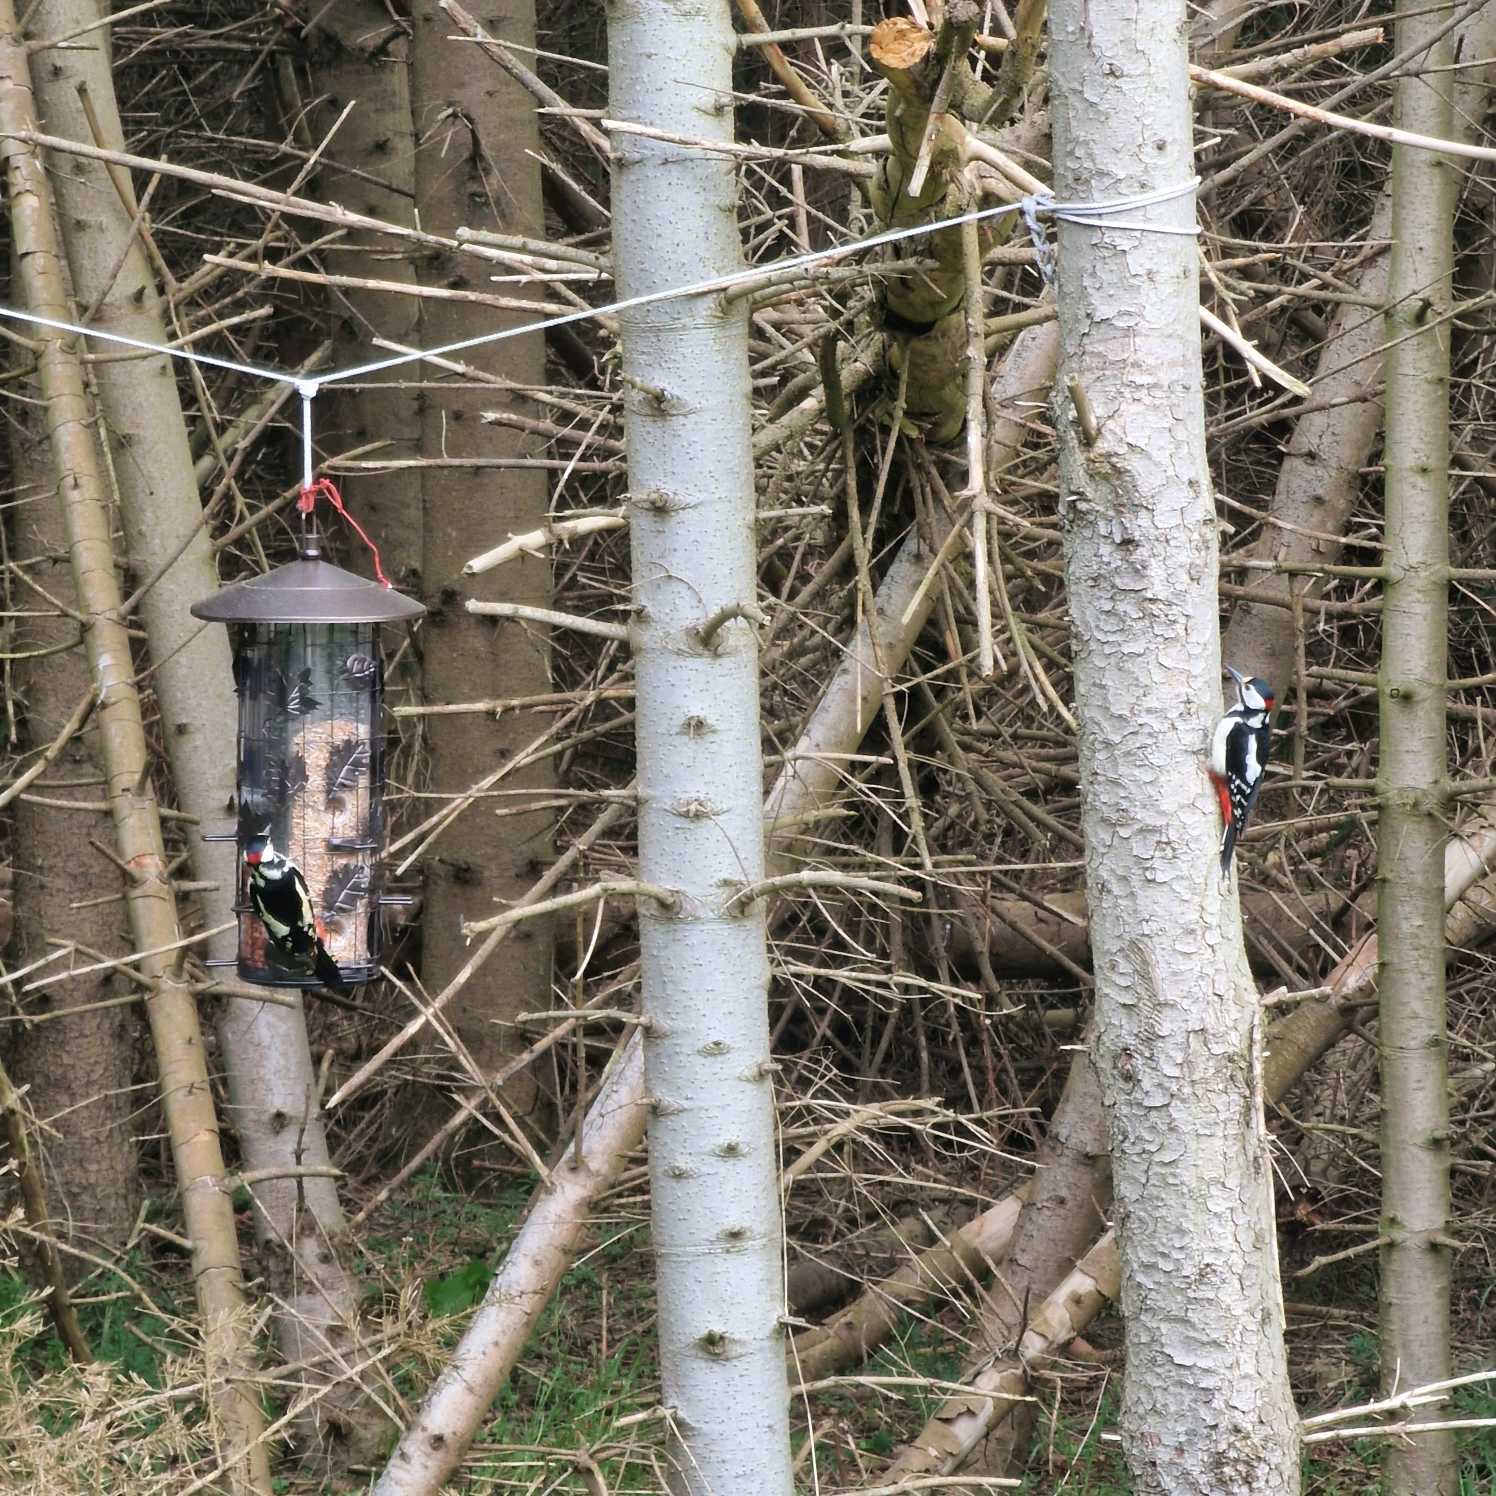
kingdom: Animalia
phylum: Chordata
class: Aves
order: Piciformes
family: Picidae
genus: Dendrocopos
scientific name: Dendrocopos major
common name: Stor flagspætte
